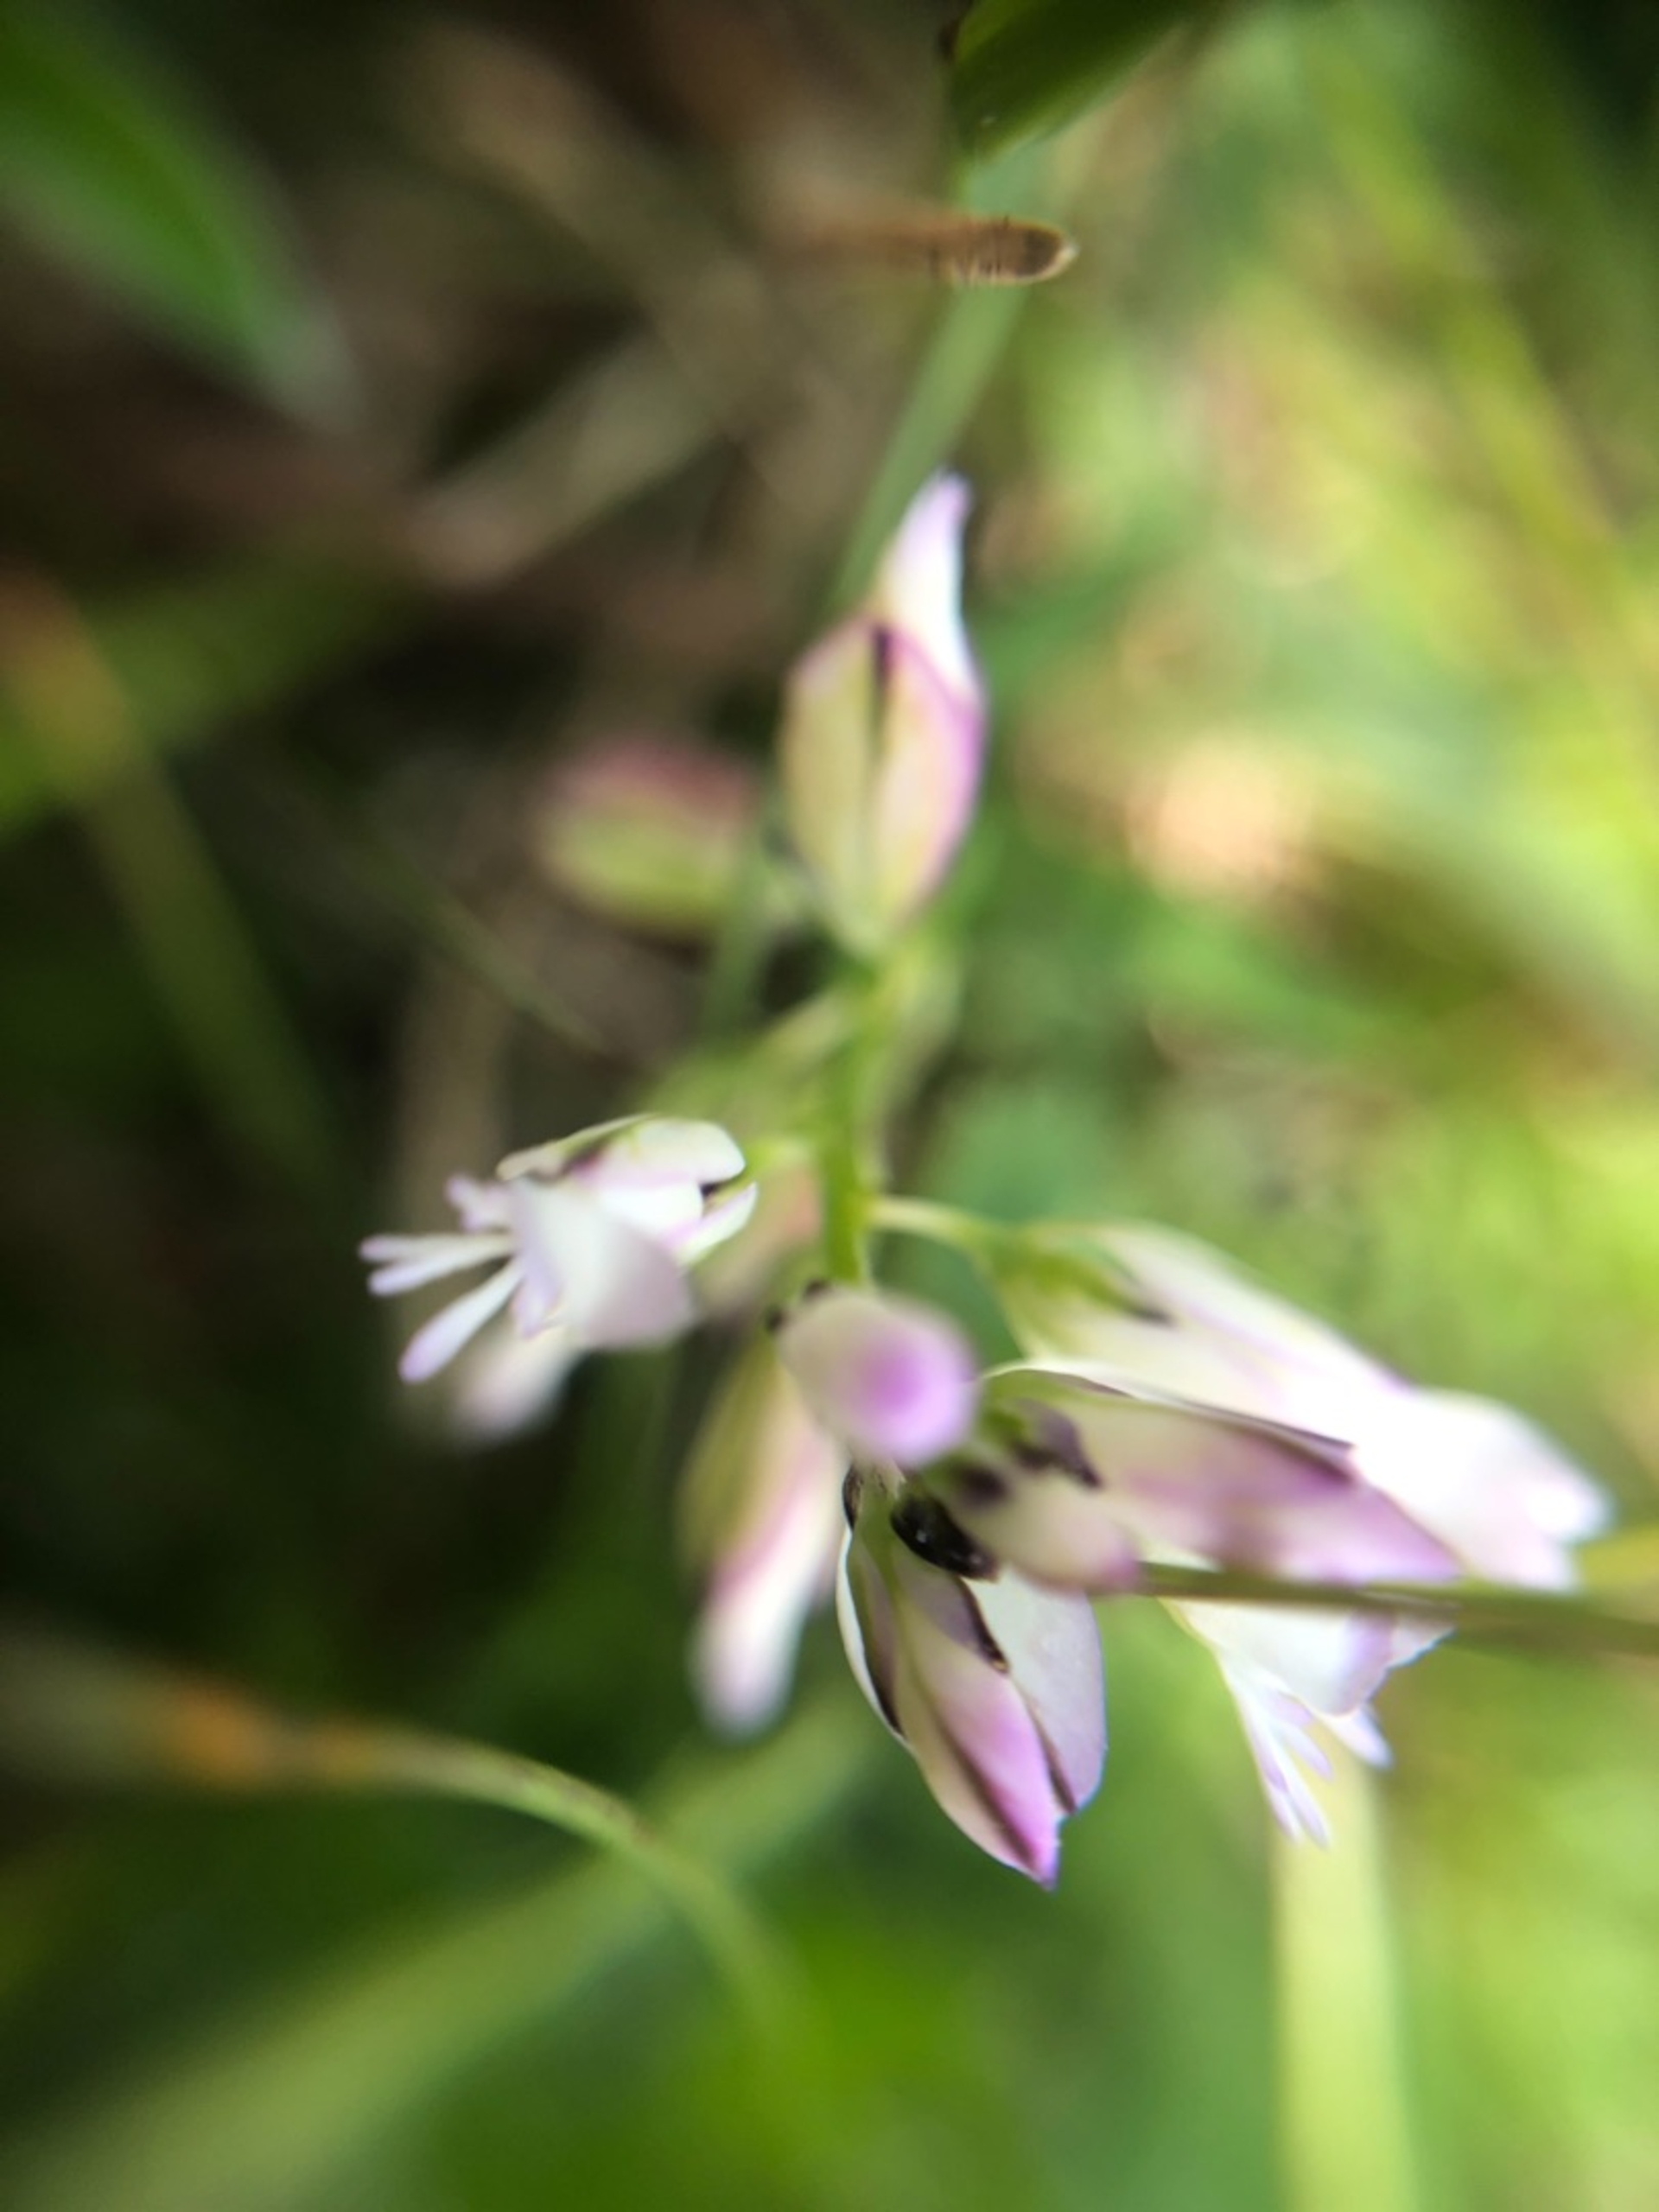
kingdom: Plantae
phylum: Tracheophyta
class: Magnoliopsida
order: Fabales
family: Polygalaceae
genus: Polygala
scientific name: Polygala vulgaris
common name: Almindelig mælkeurt
